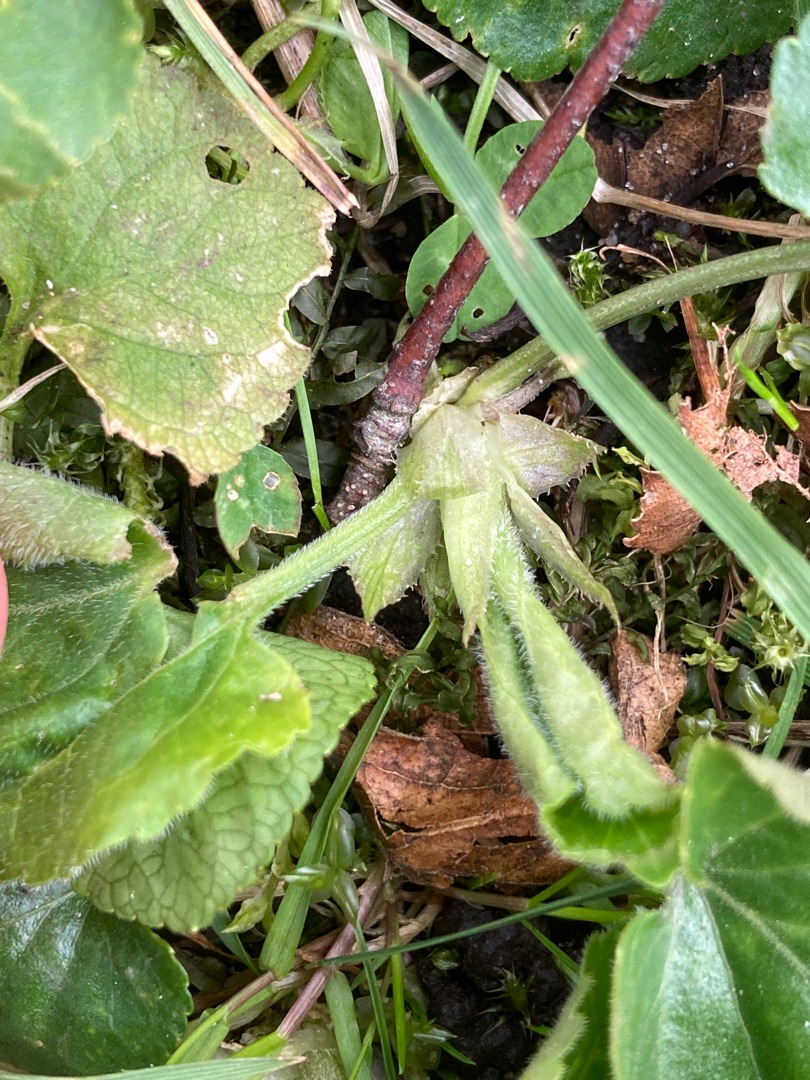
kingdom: Plantae
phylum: Tracheophyta
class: Magnoliopsida
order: Malpighiales
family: Violaceae
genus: Viola
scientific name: Viola odorata
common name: Marts-viol
